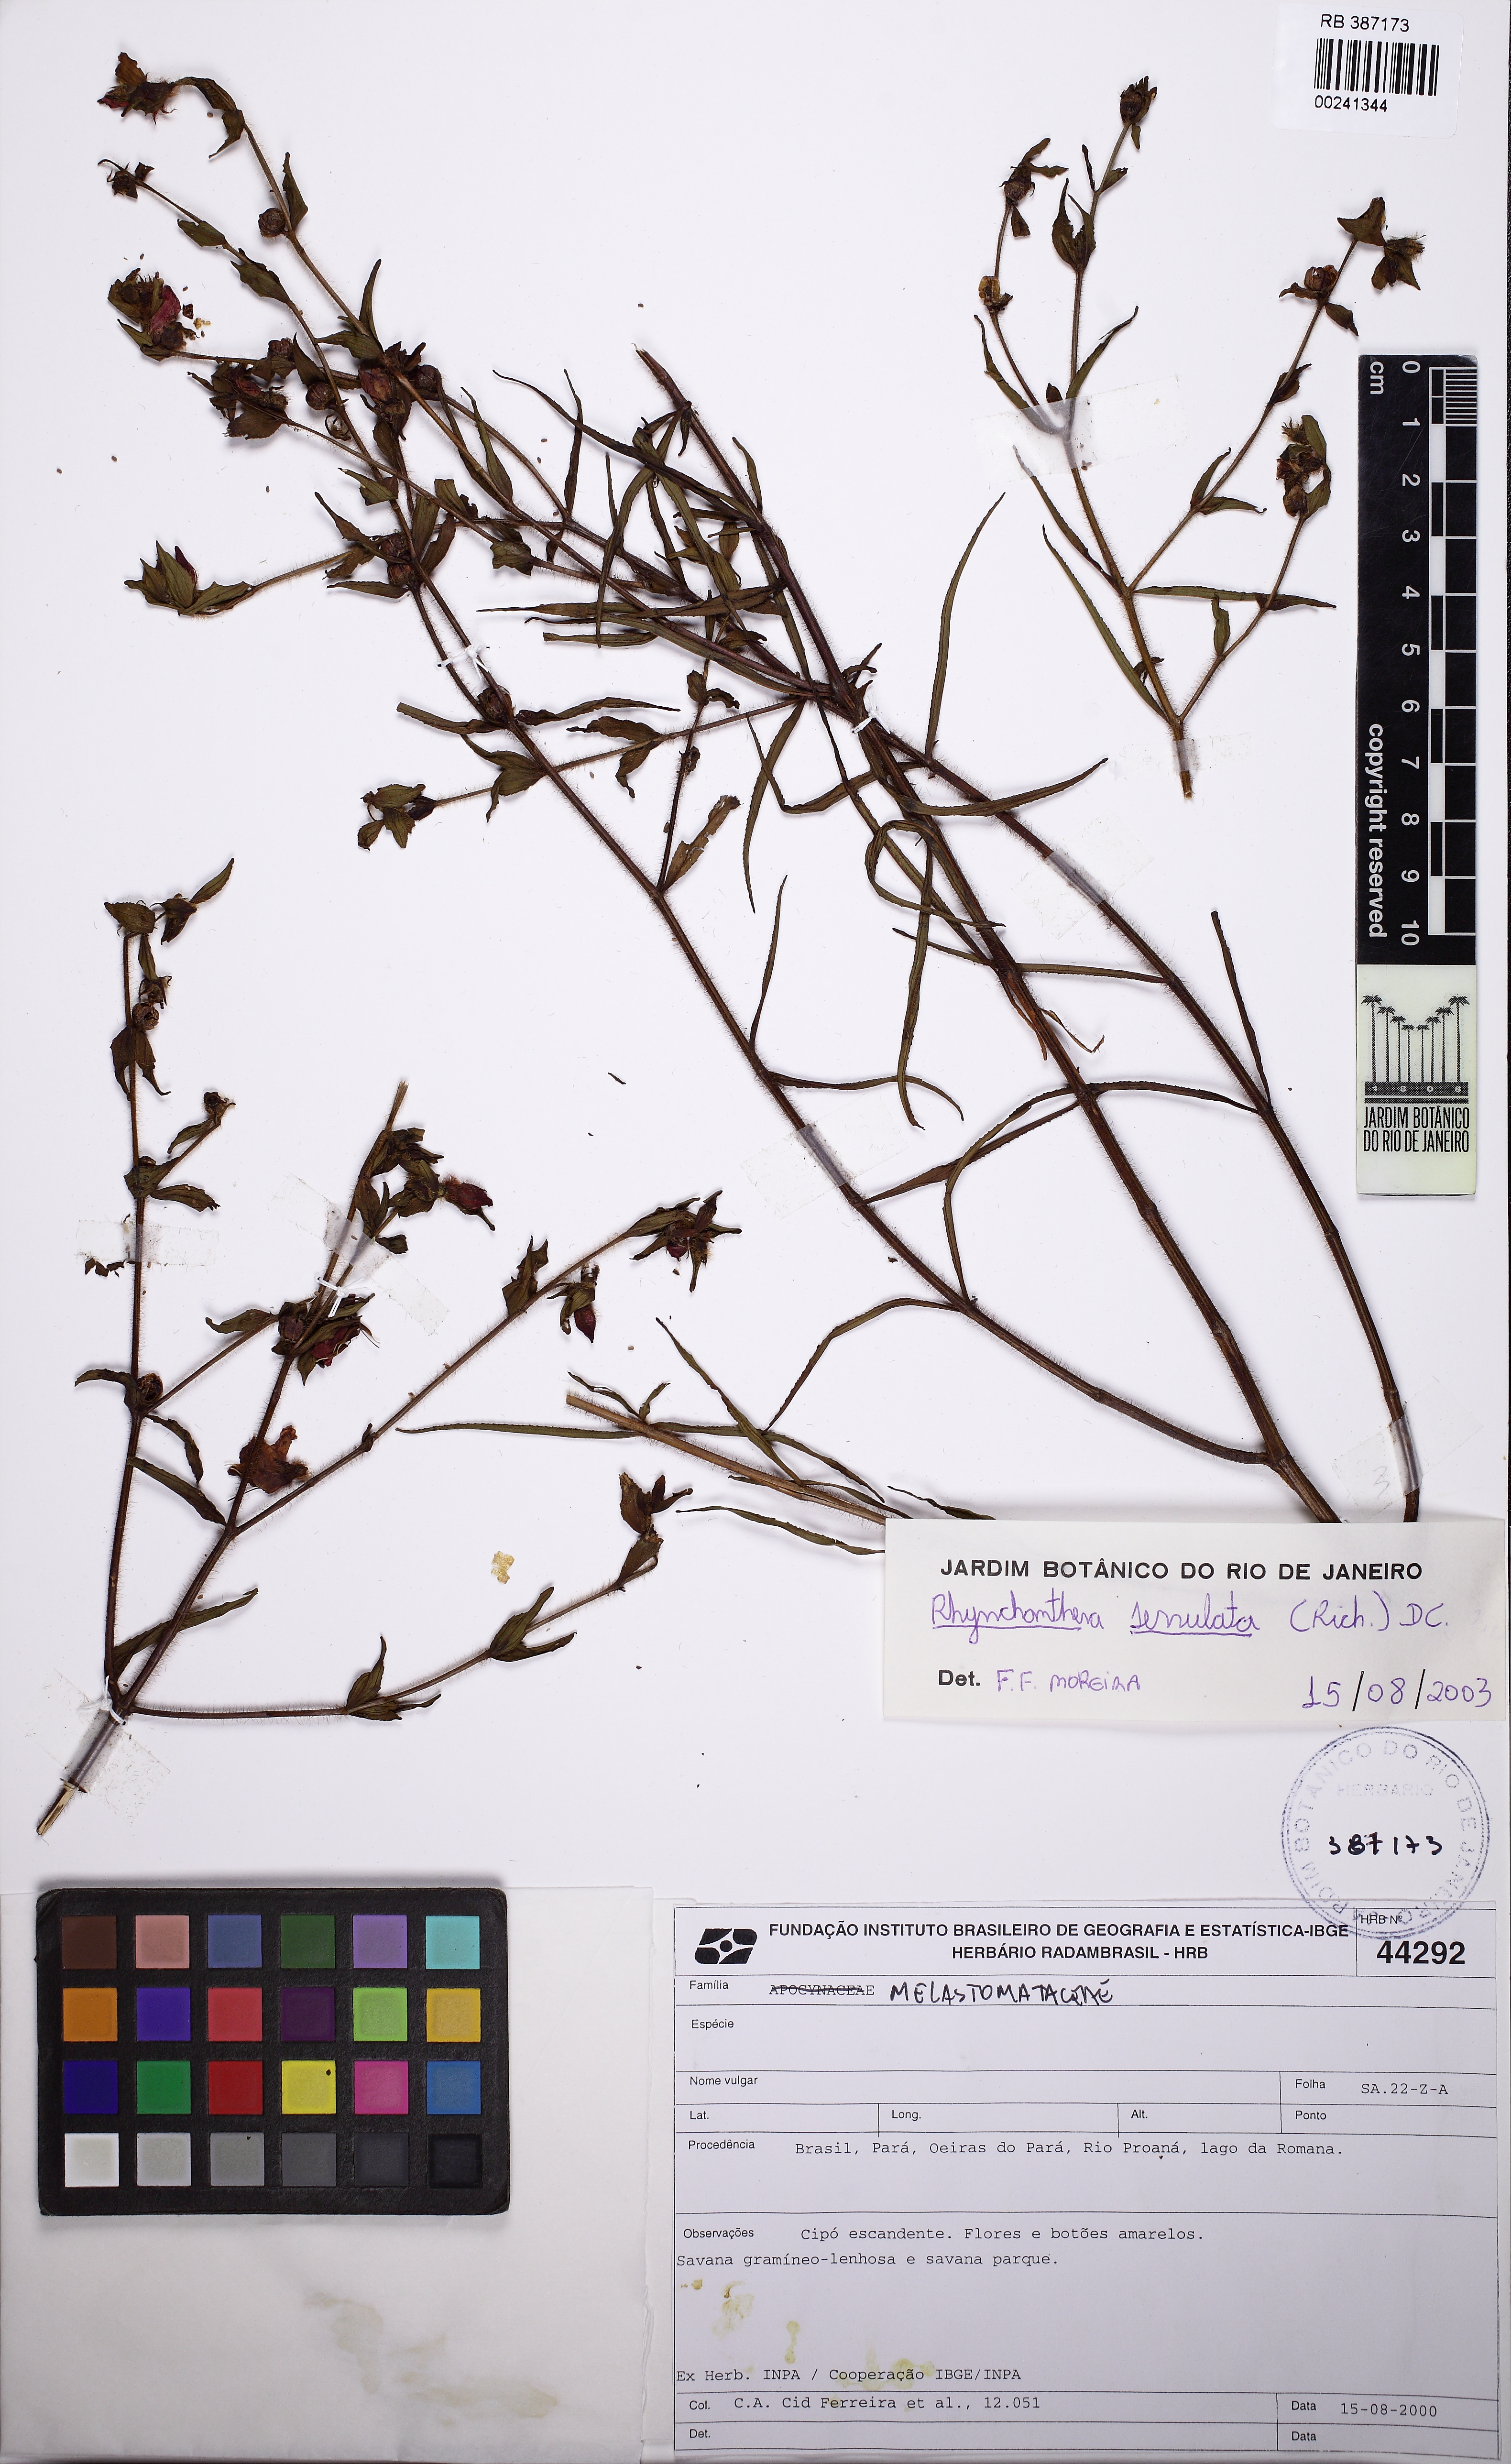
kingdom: Plantae
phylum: Tracheophyta
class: Magnoliopsida
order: Myrtales
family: Melastomataceae
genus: Rhynchanthera
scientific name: Rhynchanthera serrulata
